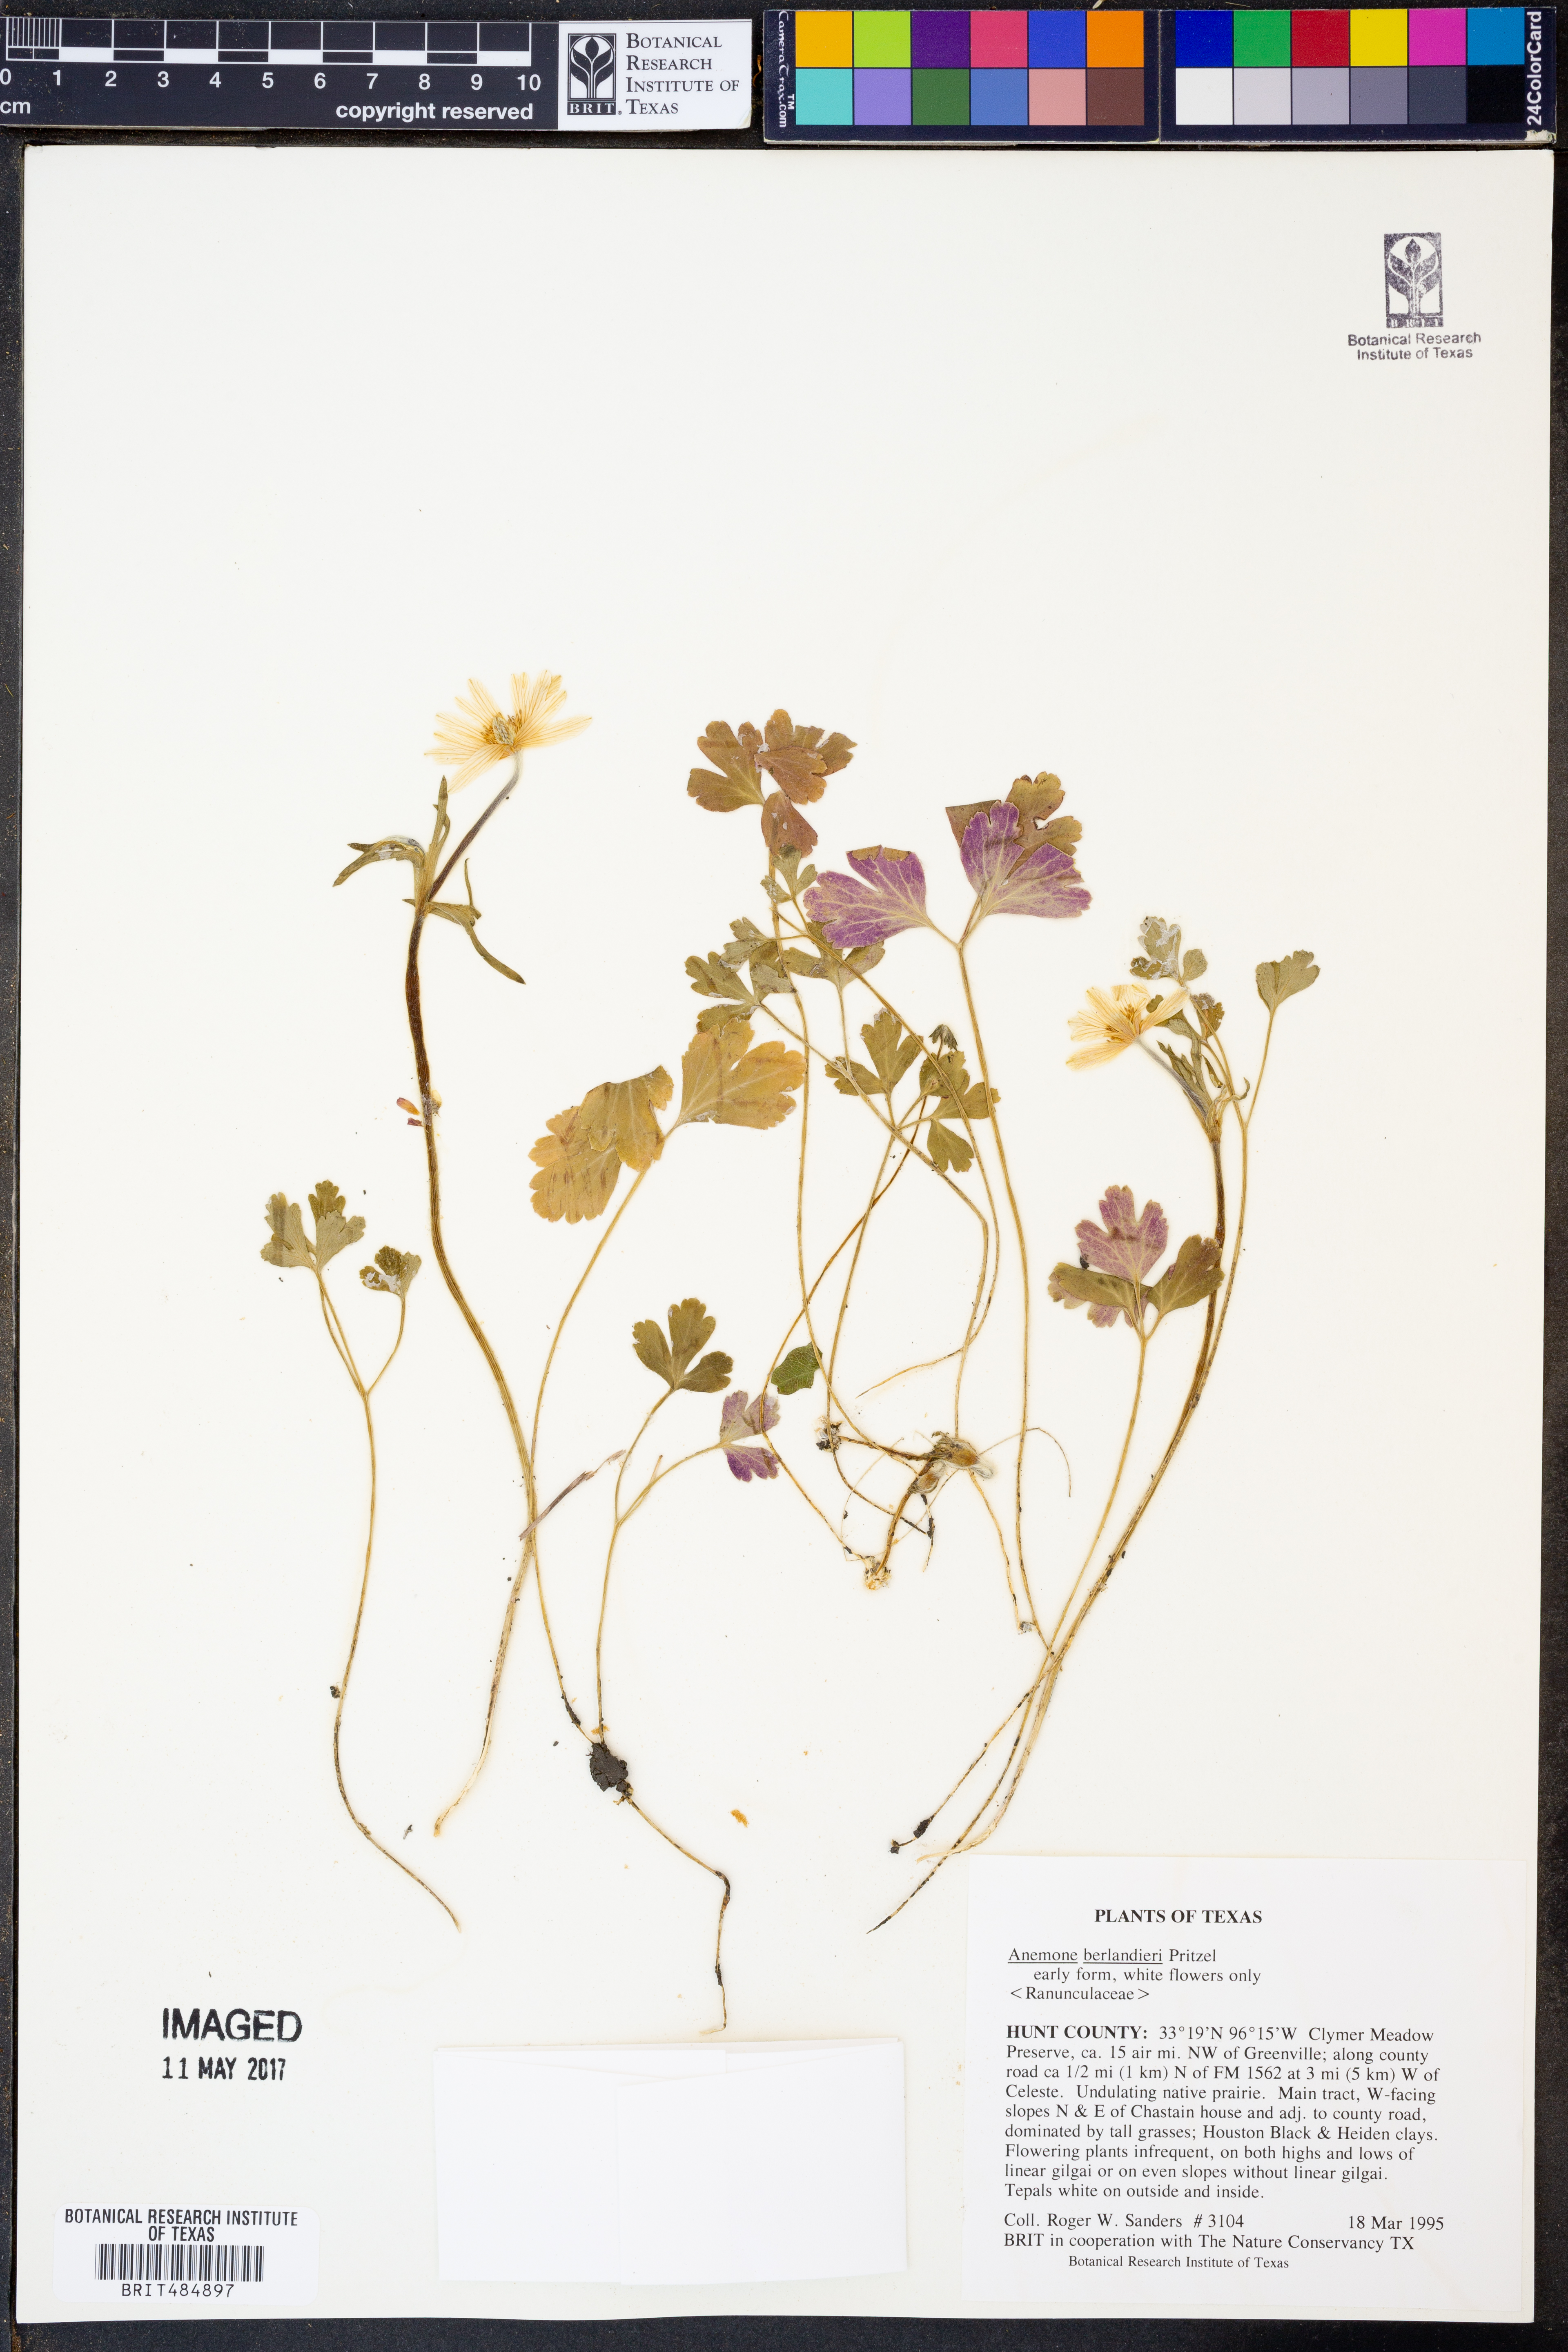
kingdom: Plantae
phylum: Tracheophyta
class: Magnoliopsida
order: Ranunculales
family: Ranunculaceae
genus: Anemone
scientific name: Anemone berlandieri
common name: Ten-petal anemone
